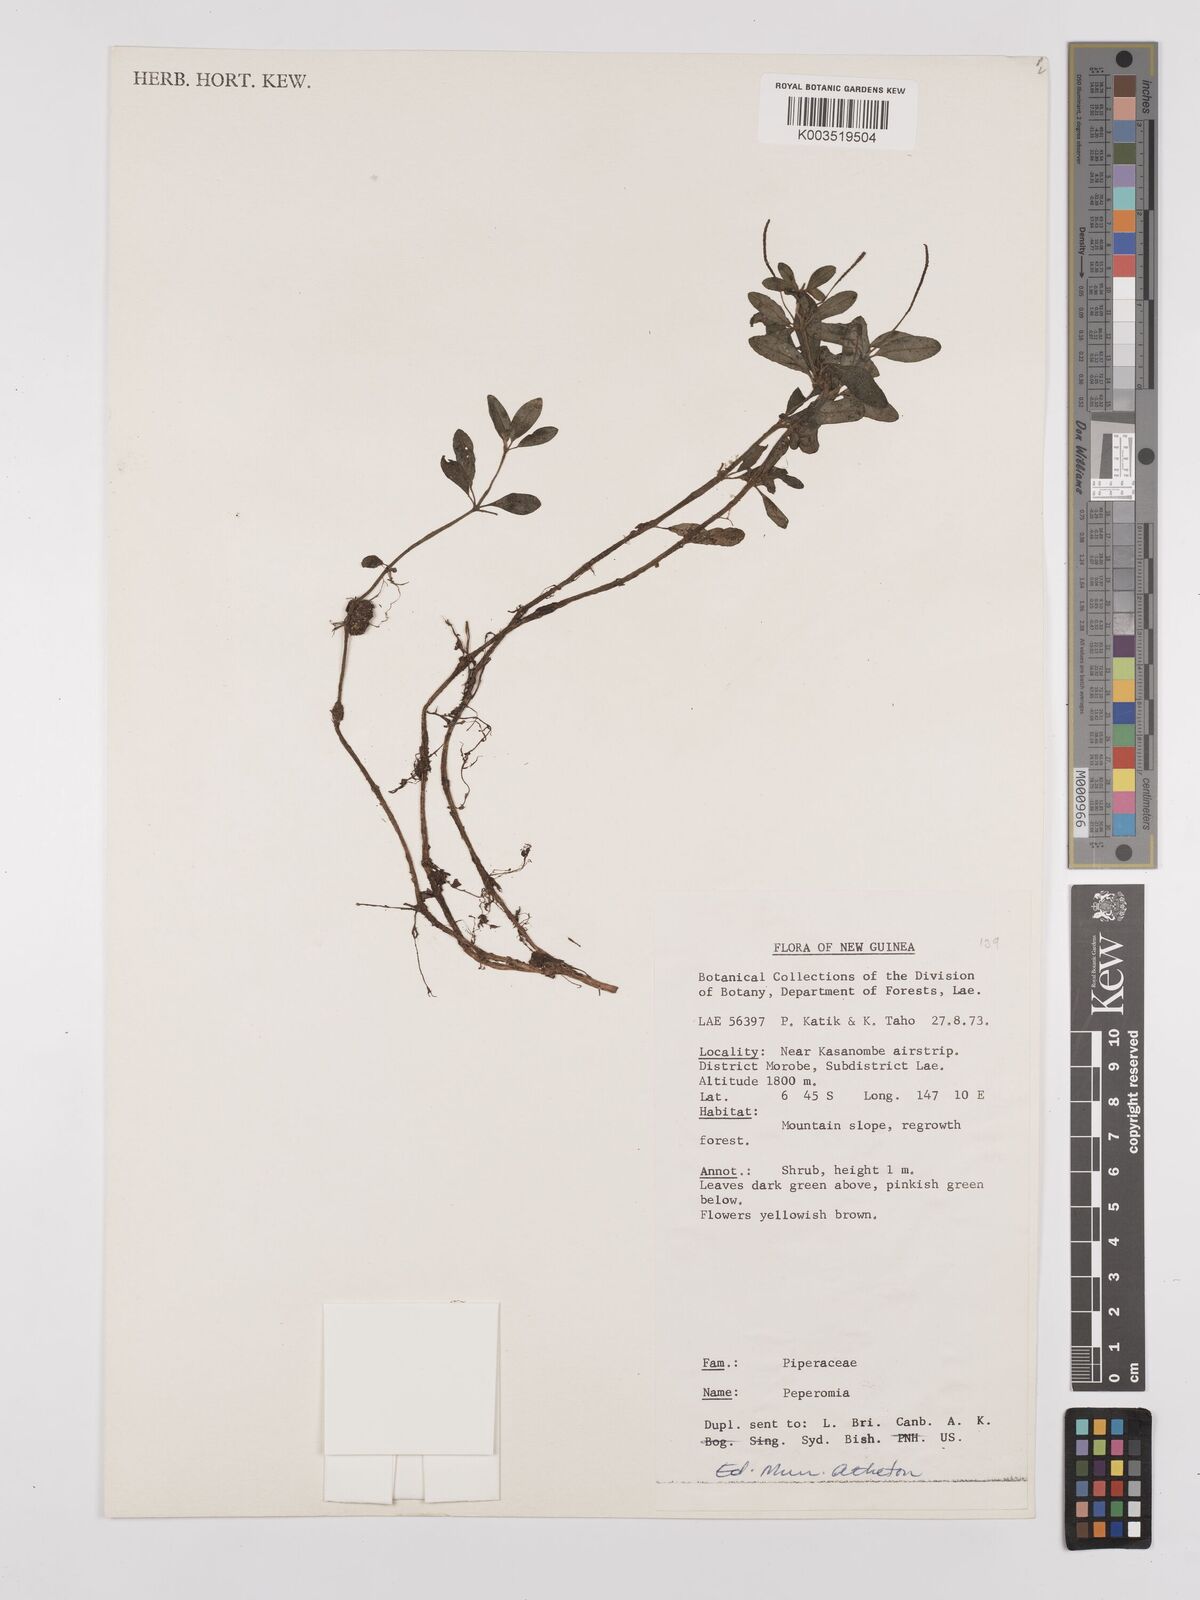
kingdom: Plantae
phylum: Tracheophyta
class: Magnoliopsida
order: Piperales
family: Piperaceae
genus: Peperomia
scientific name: Peperomia
